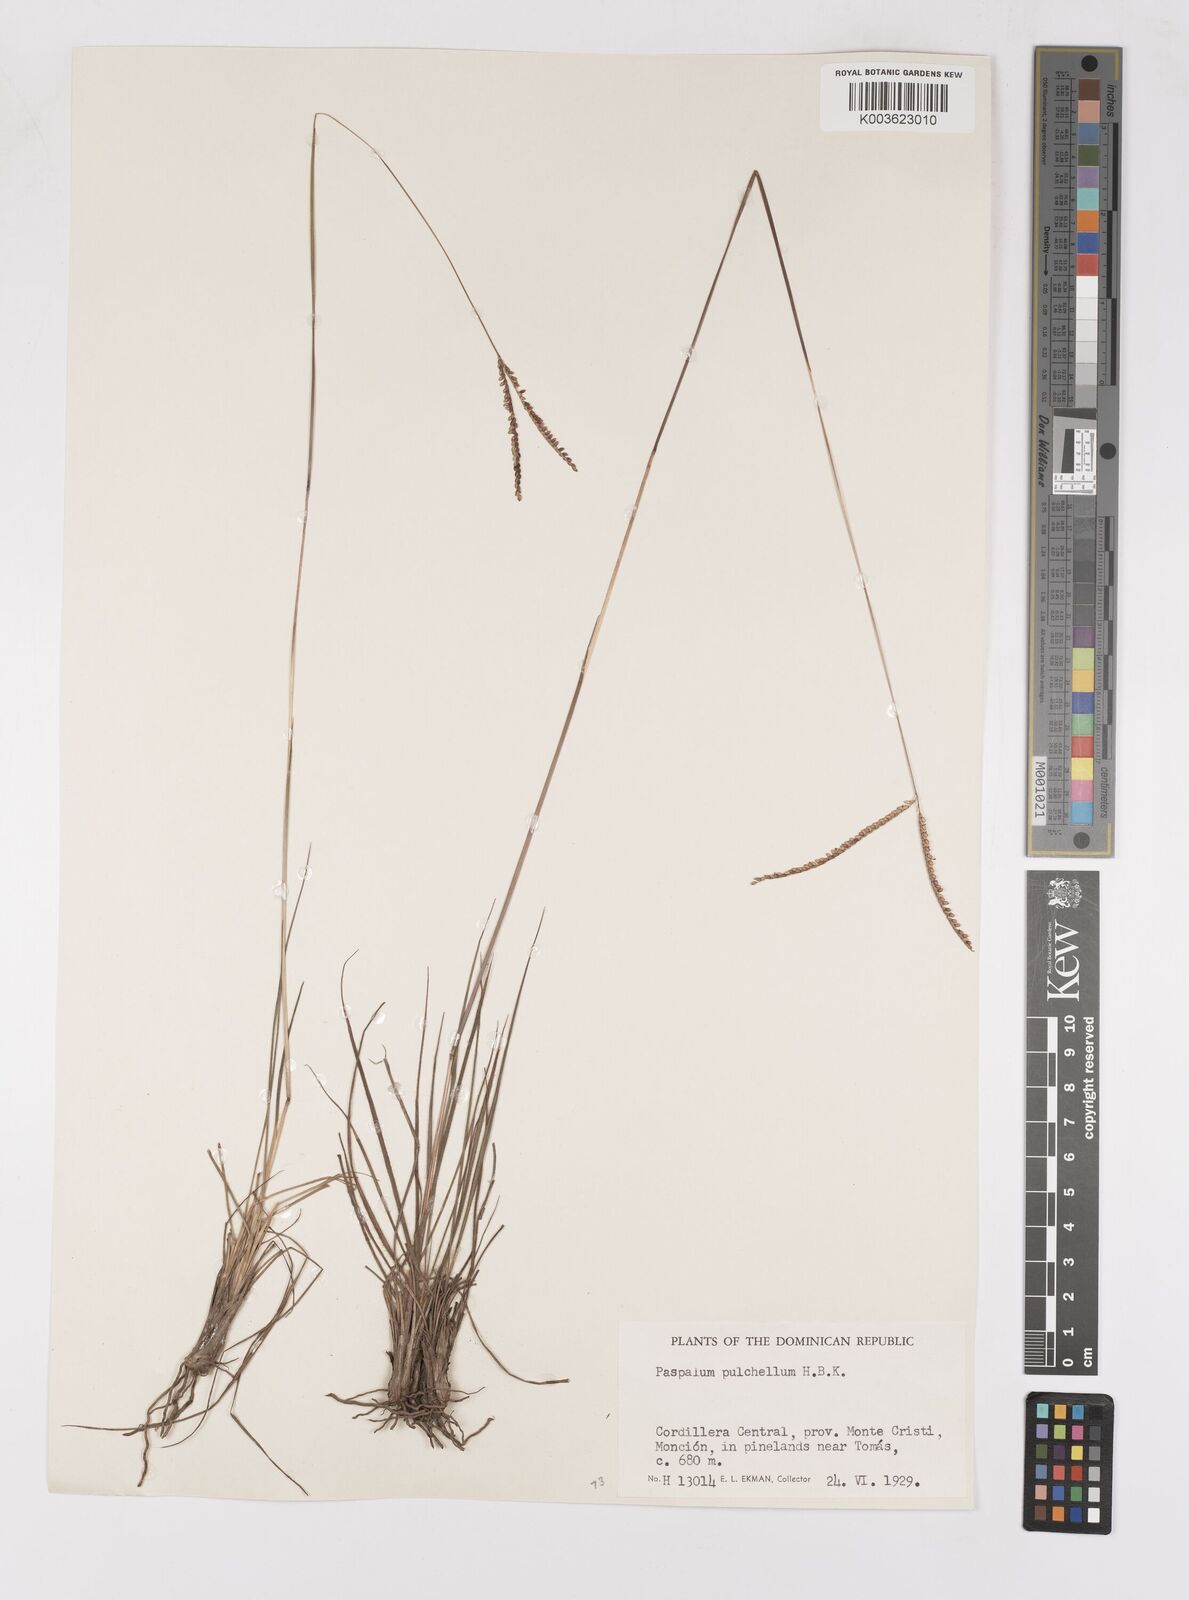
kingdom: Plantae
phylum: Tracheophyta
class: Liliopsida
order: Poales
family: Poaceae
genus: Paspalum
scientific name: Paspalum pulchellum
